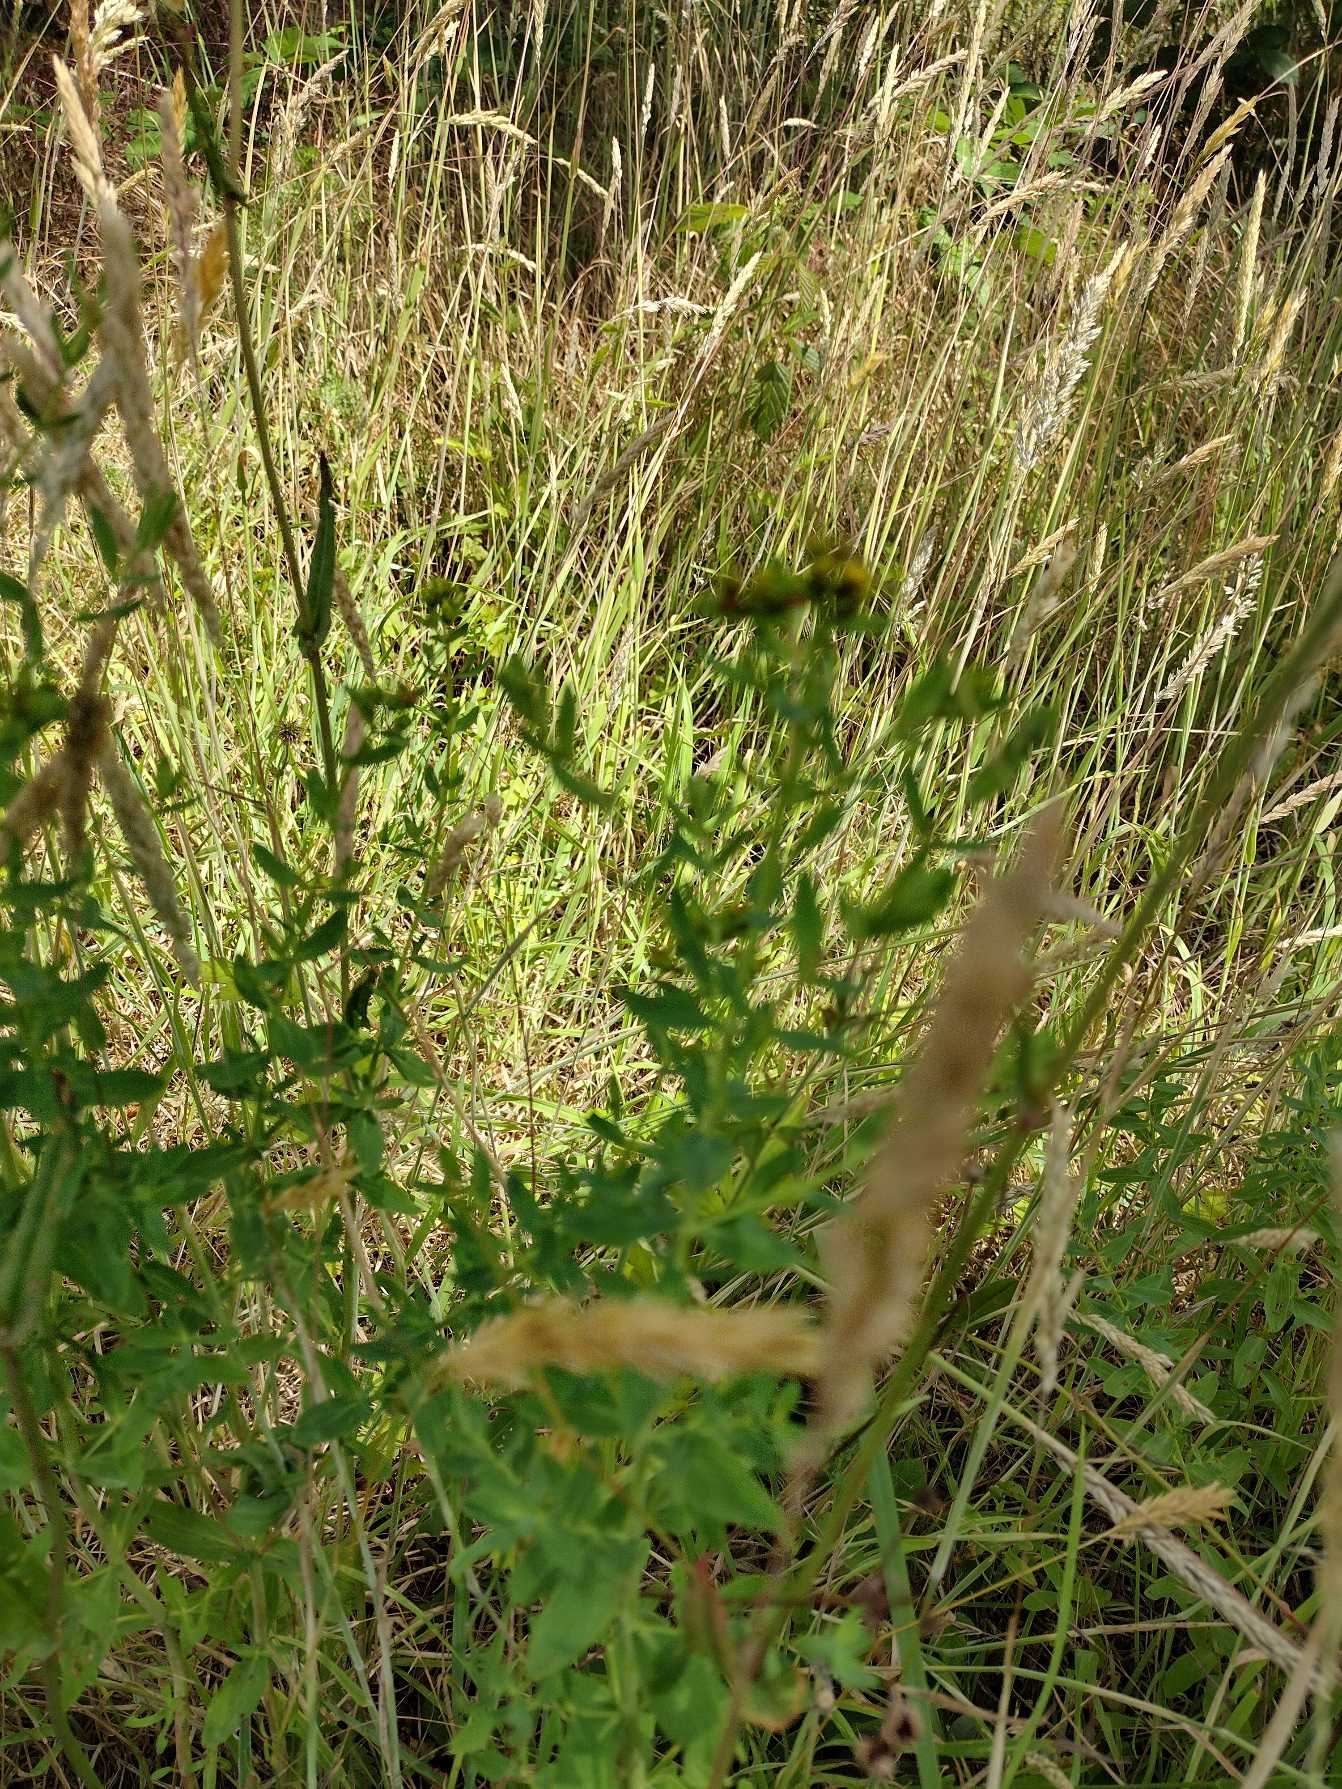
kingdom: Plantae
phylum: Tracheophyta
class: Magnoliopsida
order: Malpighiales
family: Hypericaceae
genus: Hypericum
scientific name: Hypericum
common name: Perikonslægten
